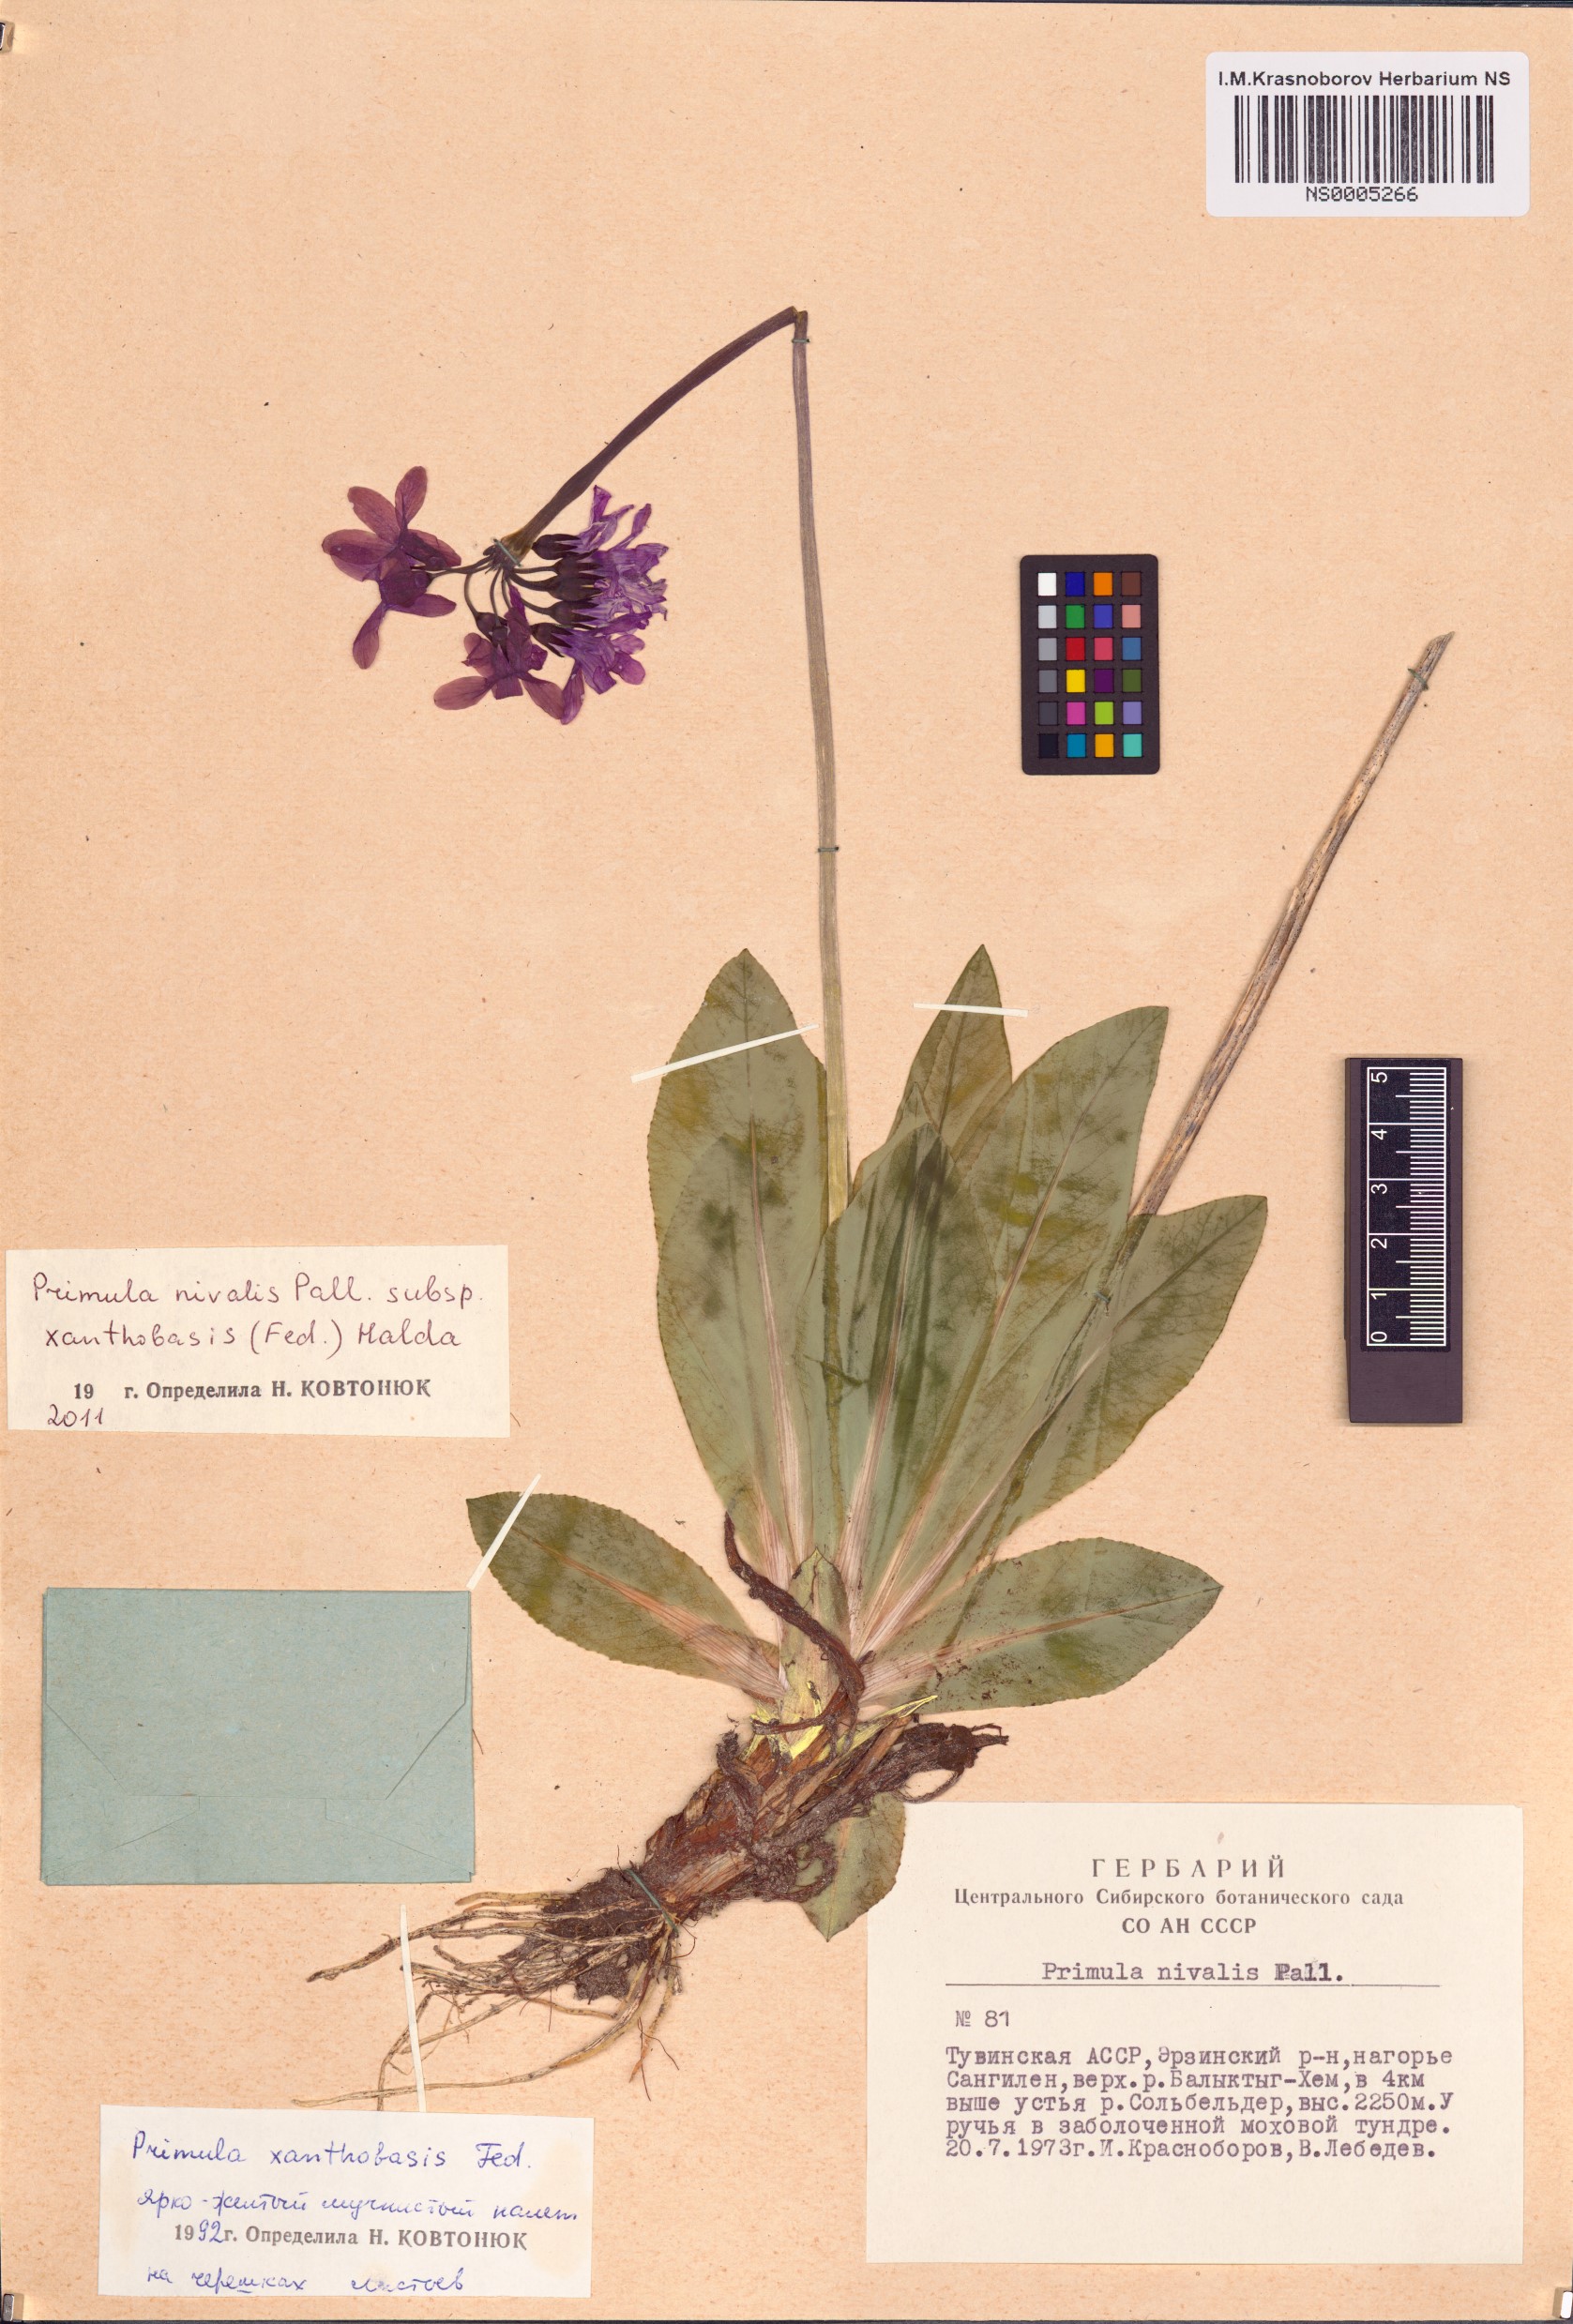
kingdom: Plantae
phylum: Tracheophyta
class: Magnoliopsida
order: Ericales
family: Primulaceae
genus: Primula
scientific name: Primula nivalis
